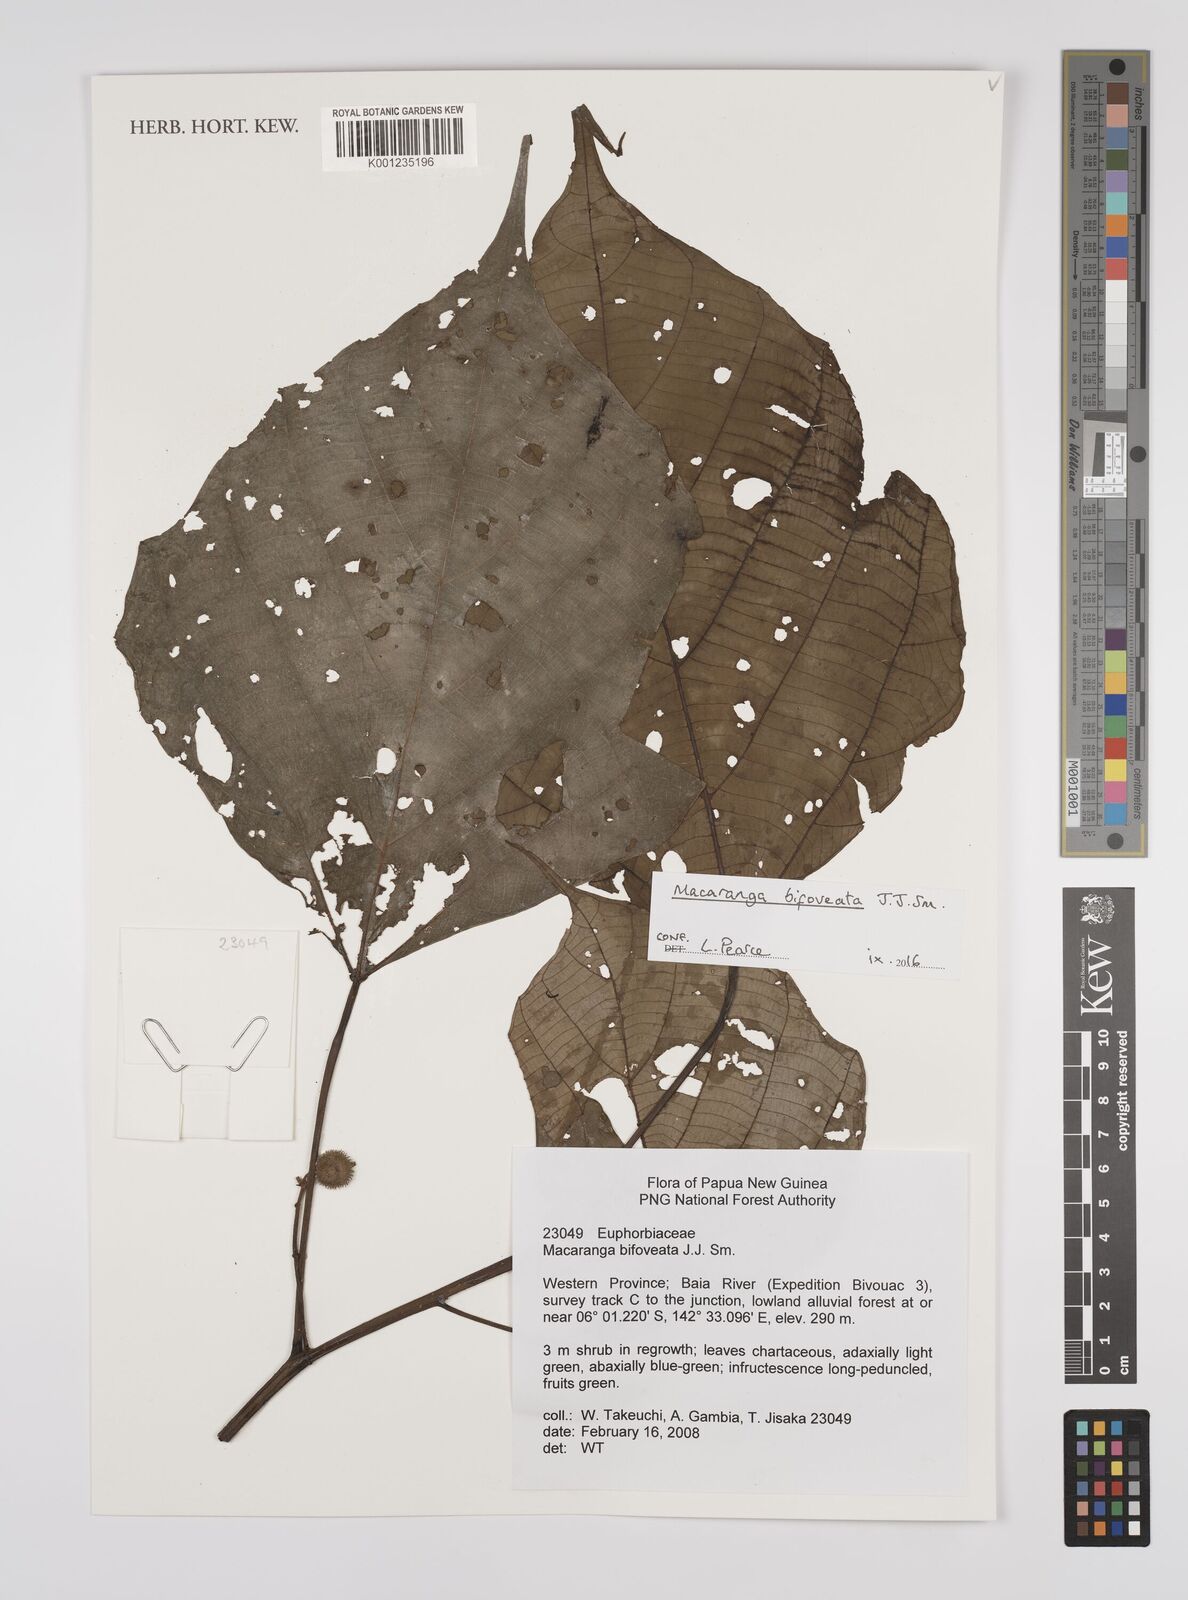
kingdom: Plantae
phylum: Tracheophyta
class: Magnoliopsida
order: Malpighiales
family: Euphorbiaceae
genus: Macaranga
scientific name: Macaranga bifoveata
